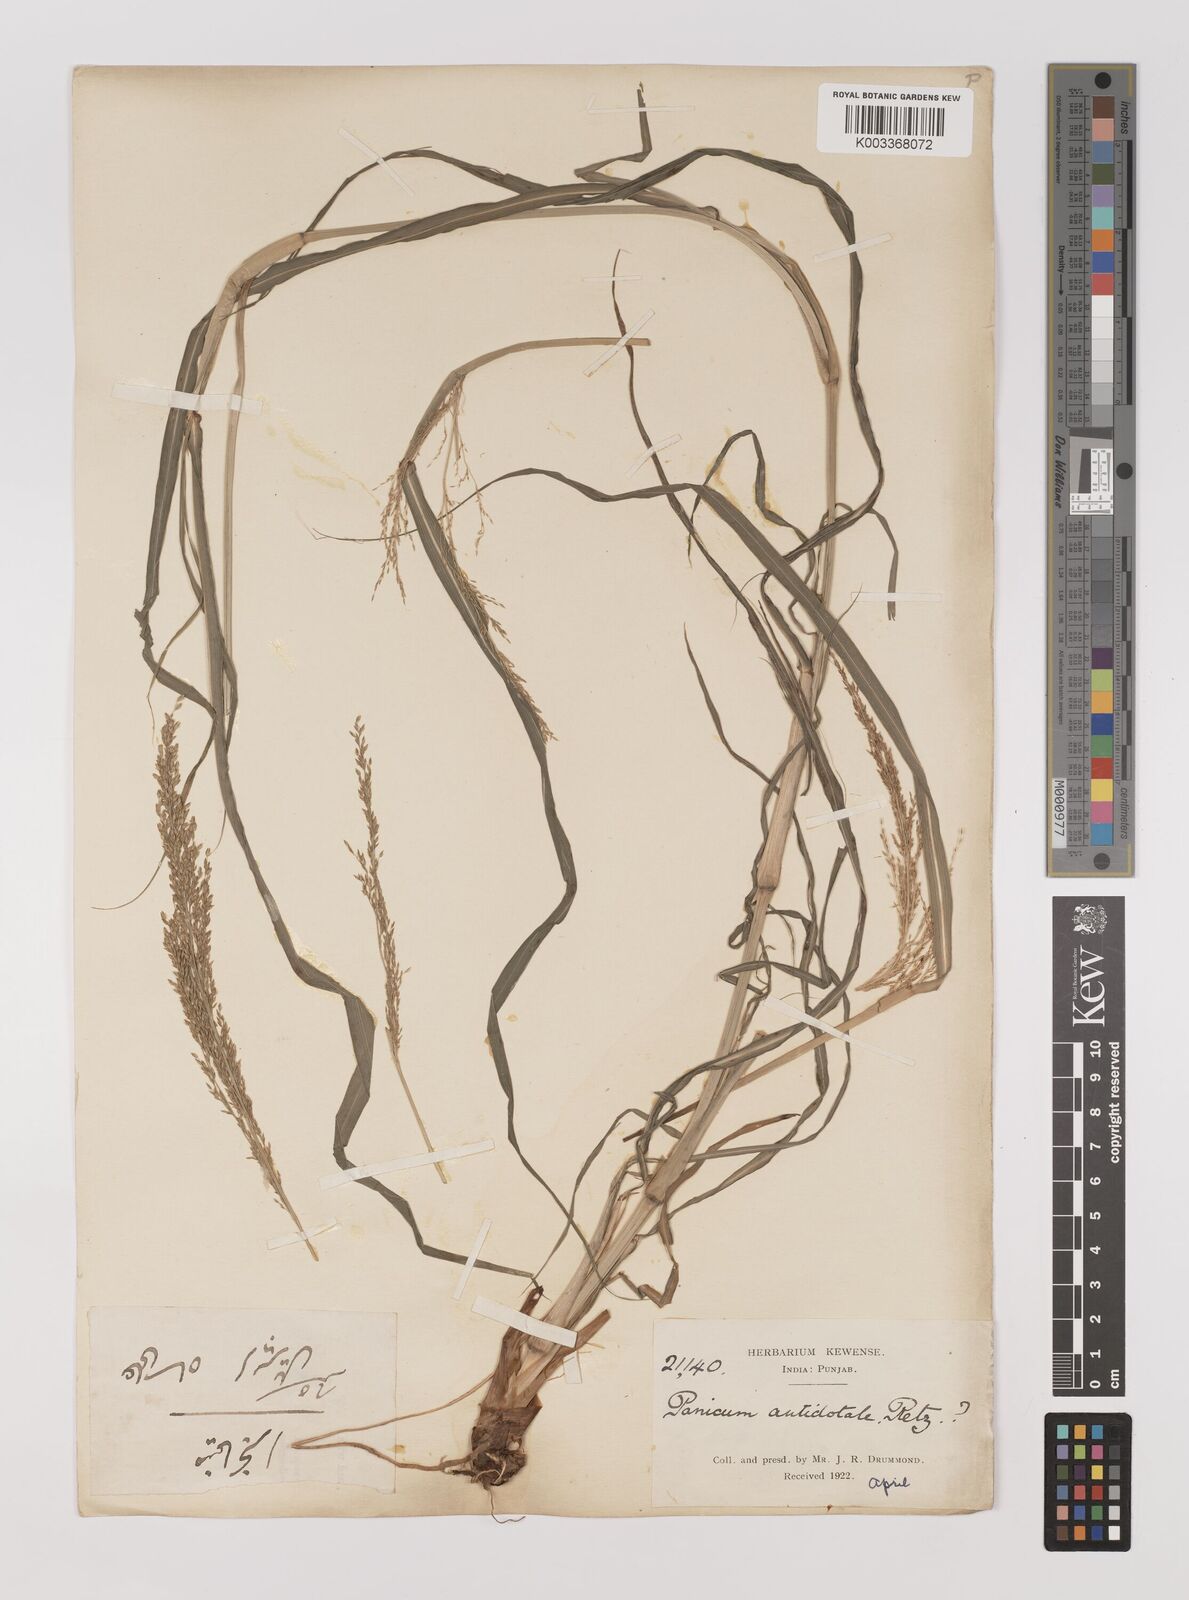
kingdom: Plantae
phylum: Tracheophyta
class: Liliopsida
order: Poales
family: Poaceae
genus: Panicum
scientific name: Panicum antidotale
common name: Blue panicum
